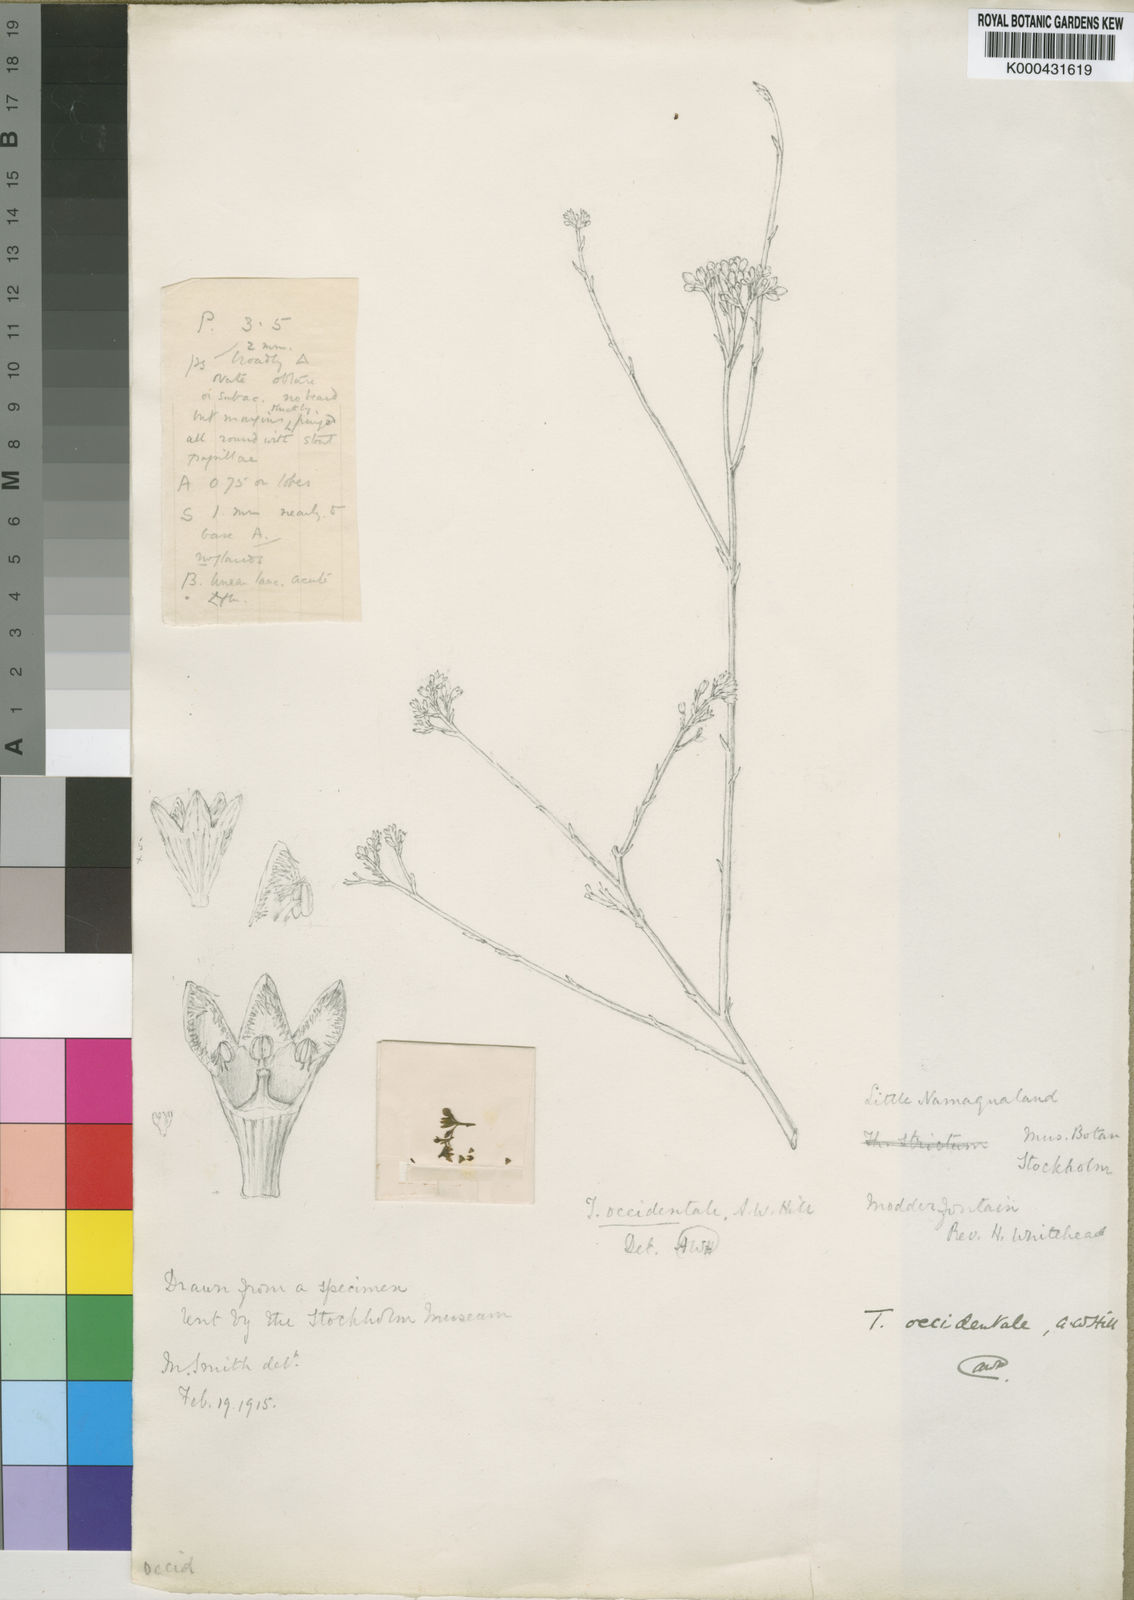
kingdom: Plantae
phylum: Tracheophyta
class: Magnoliopsida
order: Santalales
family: Thesiaceae
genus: Thesium
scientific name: Thesium occidentale
